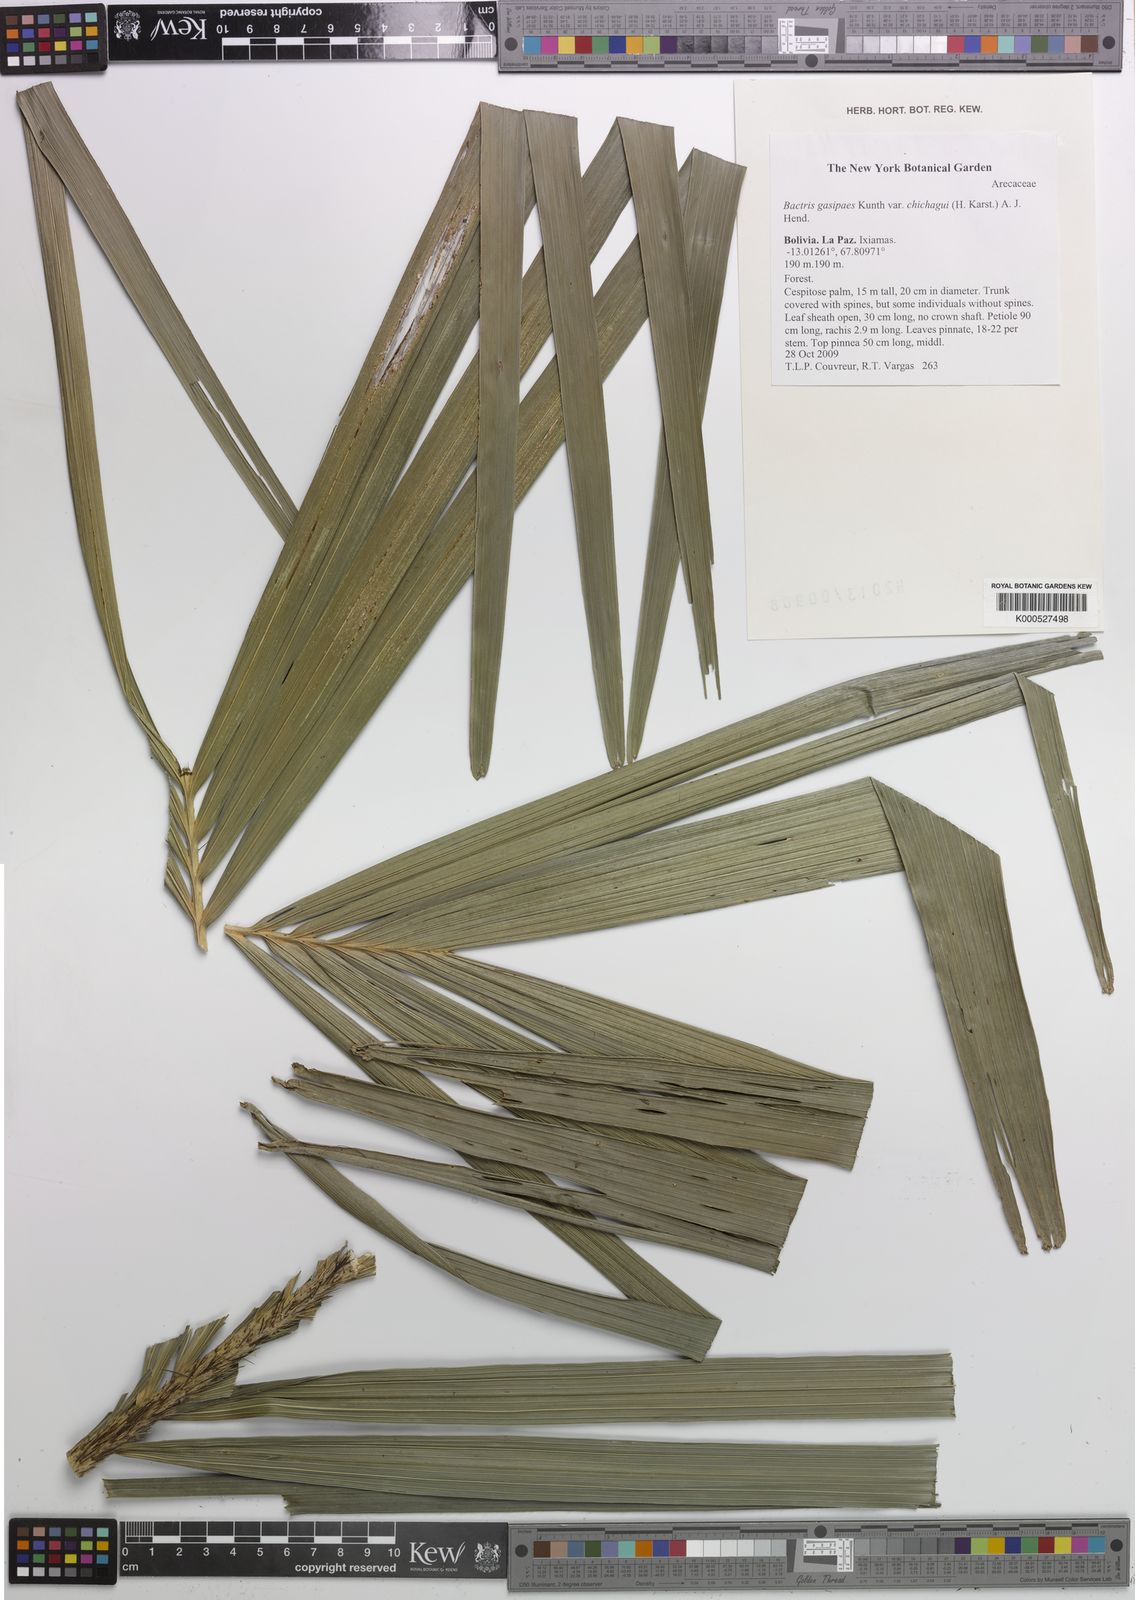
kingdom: Plantae
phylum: Tracheophyta
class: Liliopsida
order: Arecales
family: Arecaceae
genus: Bactris
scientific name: Bactris gasipaes
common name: Peach palm
